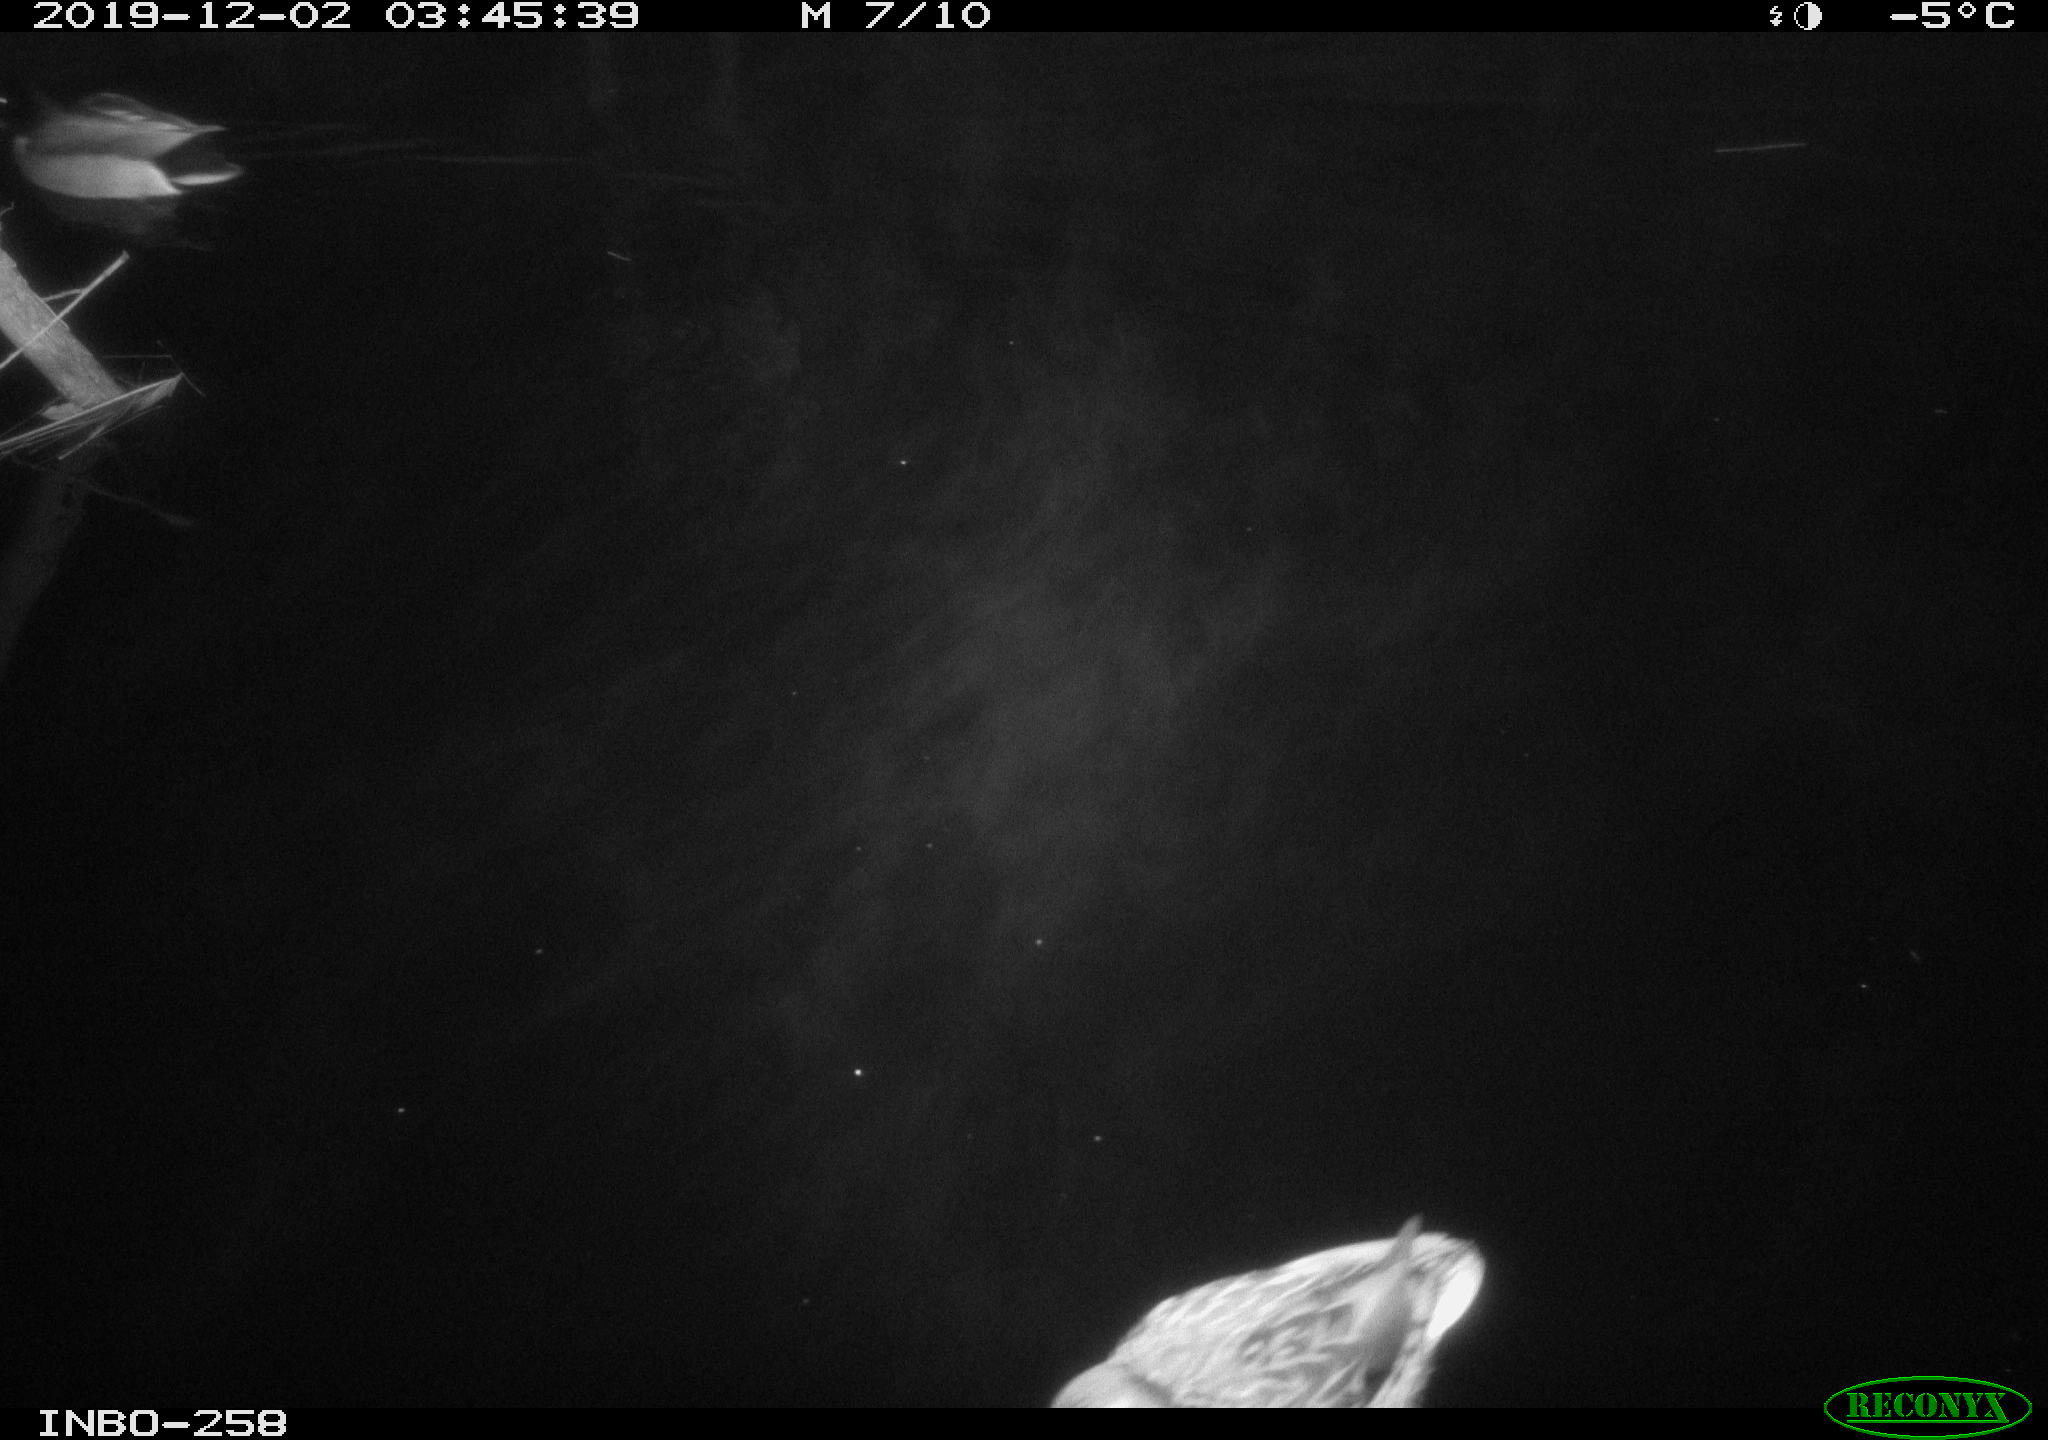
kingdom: Animalia
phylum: Chordata
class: Aves
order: Anseriformes
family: Anatidae
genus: Anas
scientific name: Anas platyrhynchos
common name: Mallard
